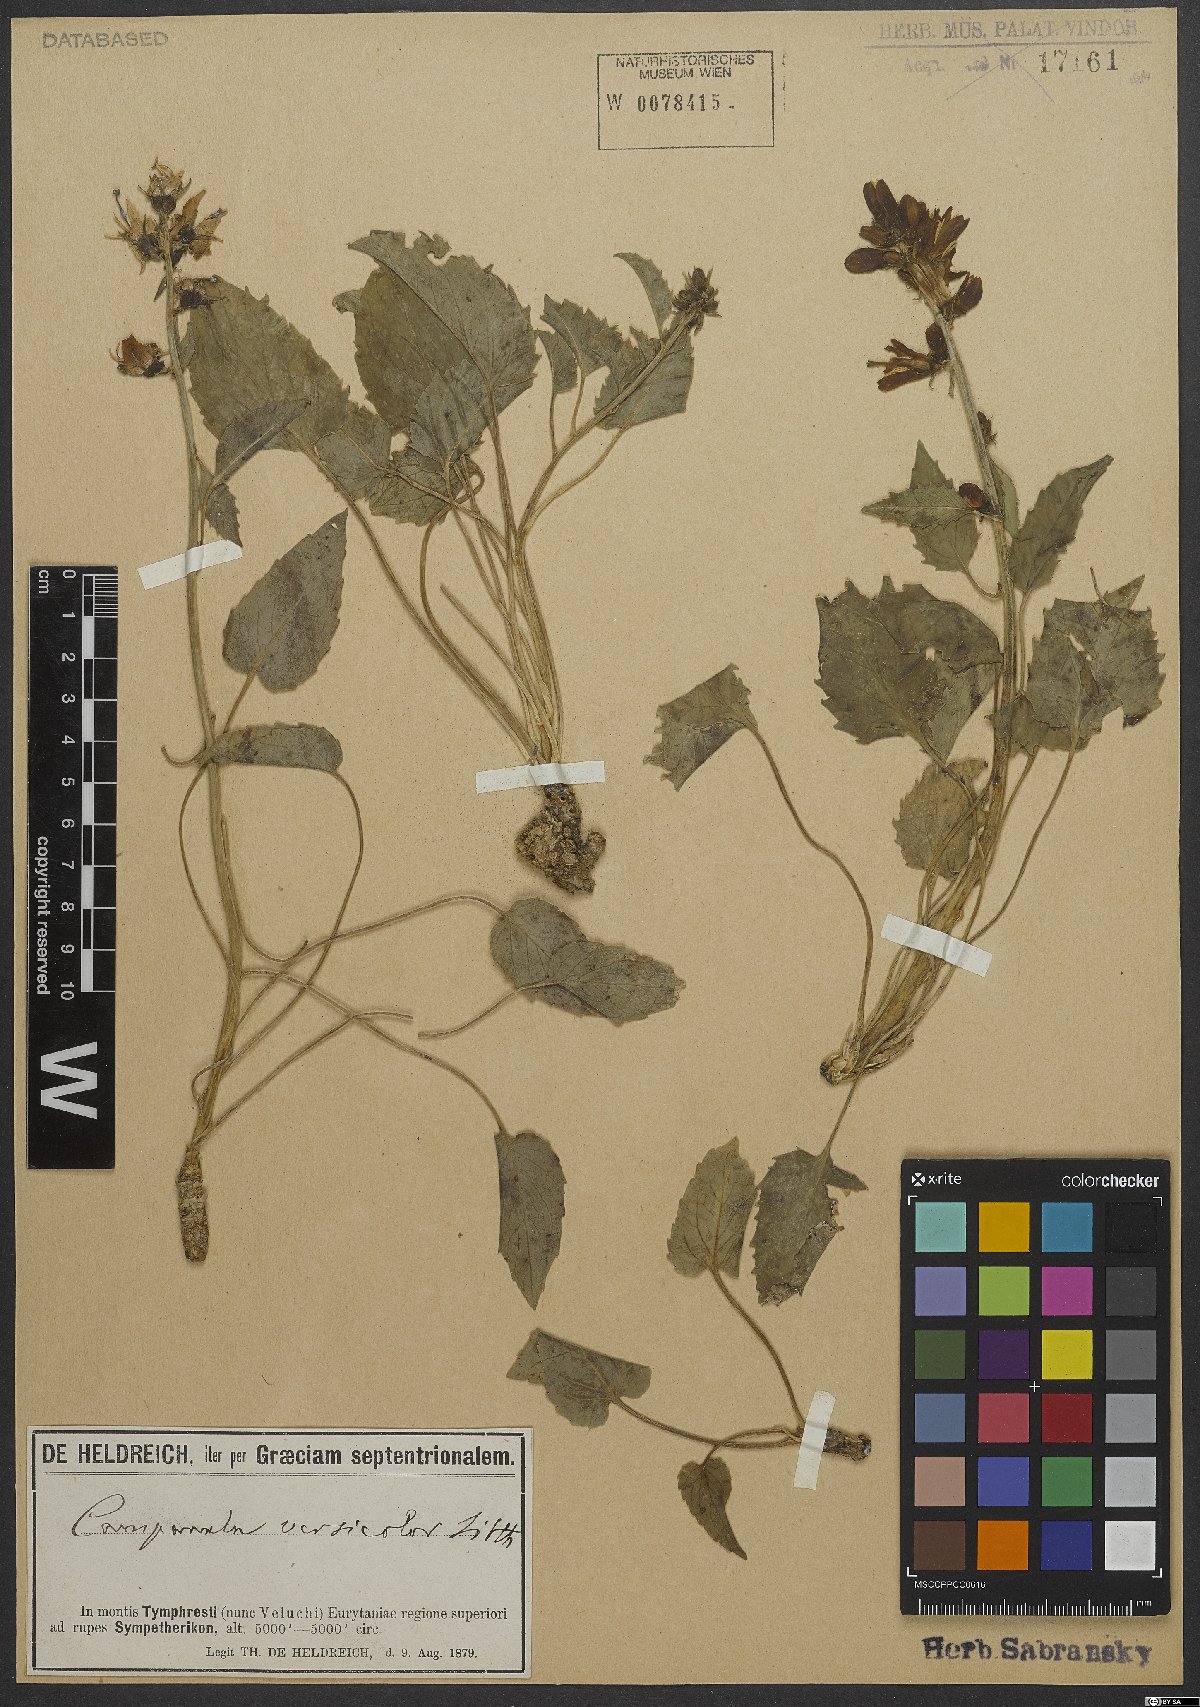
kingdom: Plantae
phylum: Tracheophyta
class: Magnoliopsida
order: Asterales
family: Campanulaceae
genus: Campanula
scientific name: Campanula versicolor
